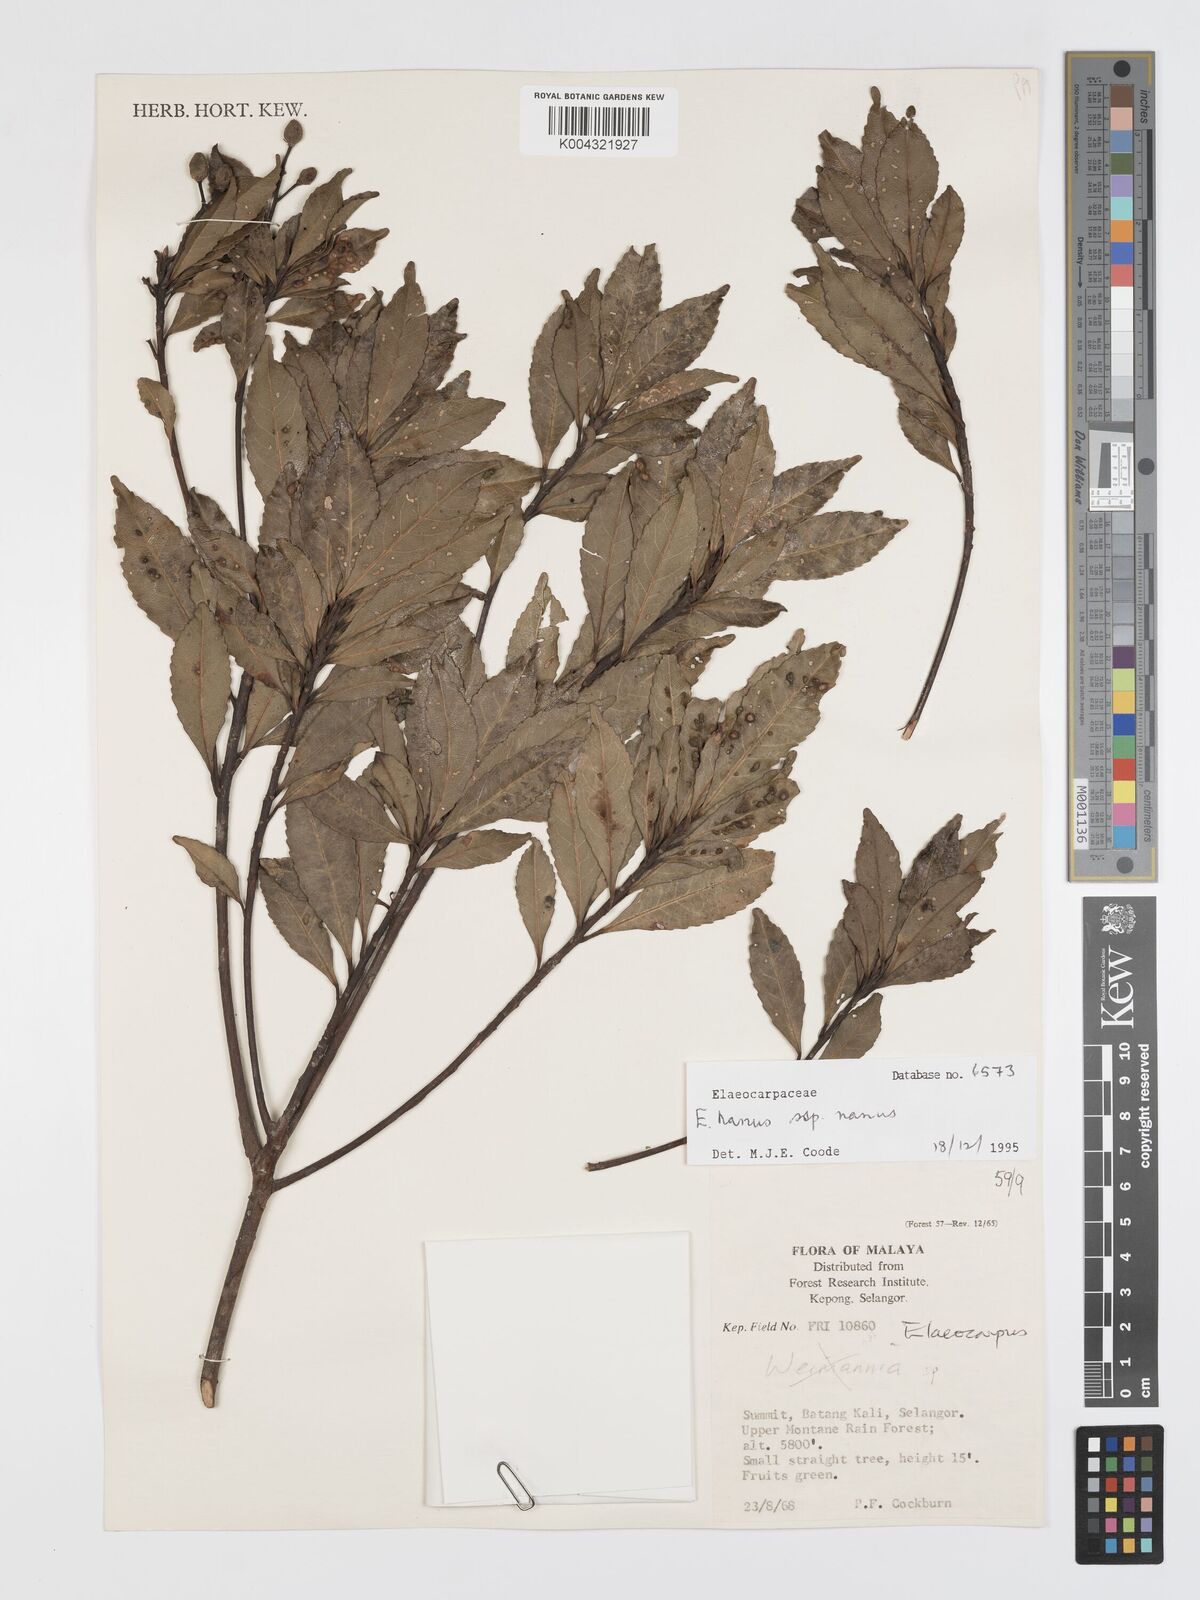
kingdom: Plantae
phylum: Tracheophyta
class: Magnoliopsida
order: Oxalidales
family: Elaeocarpaceae
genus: Elaeocarpus
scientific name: Elaeocarpus nanus
